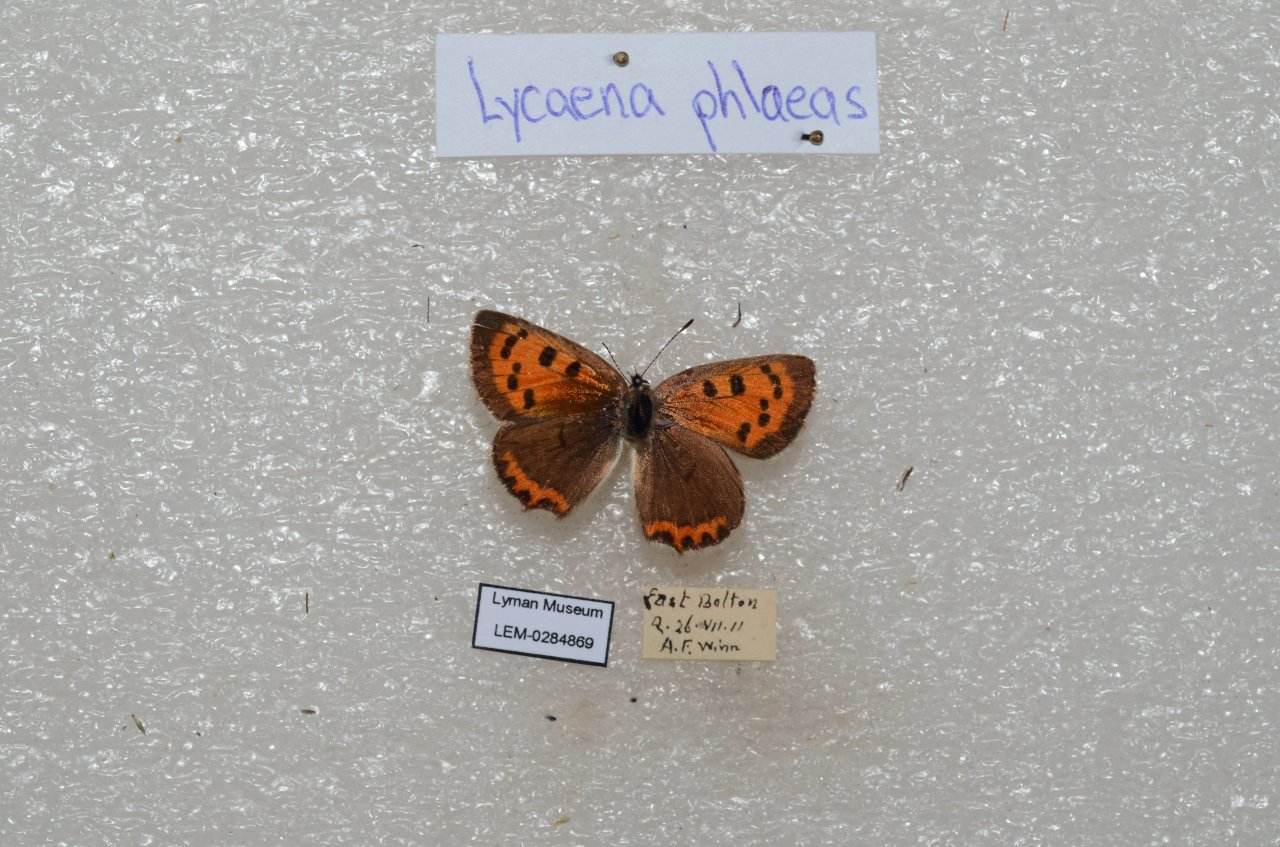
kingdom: Animalia
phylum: Arthropoda
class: Insecta
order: Lepidoptera
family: Lycaenidae
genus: Lycaena
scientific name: Lycaena phlaeas
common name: American Copper
